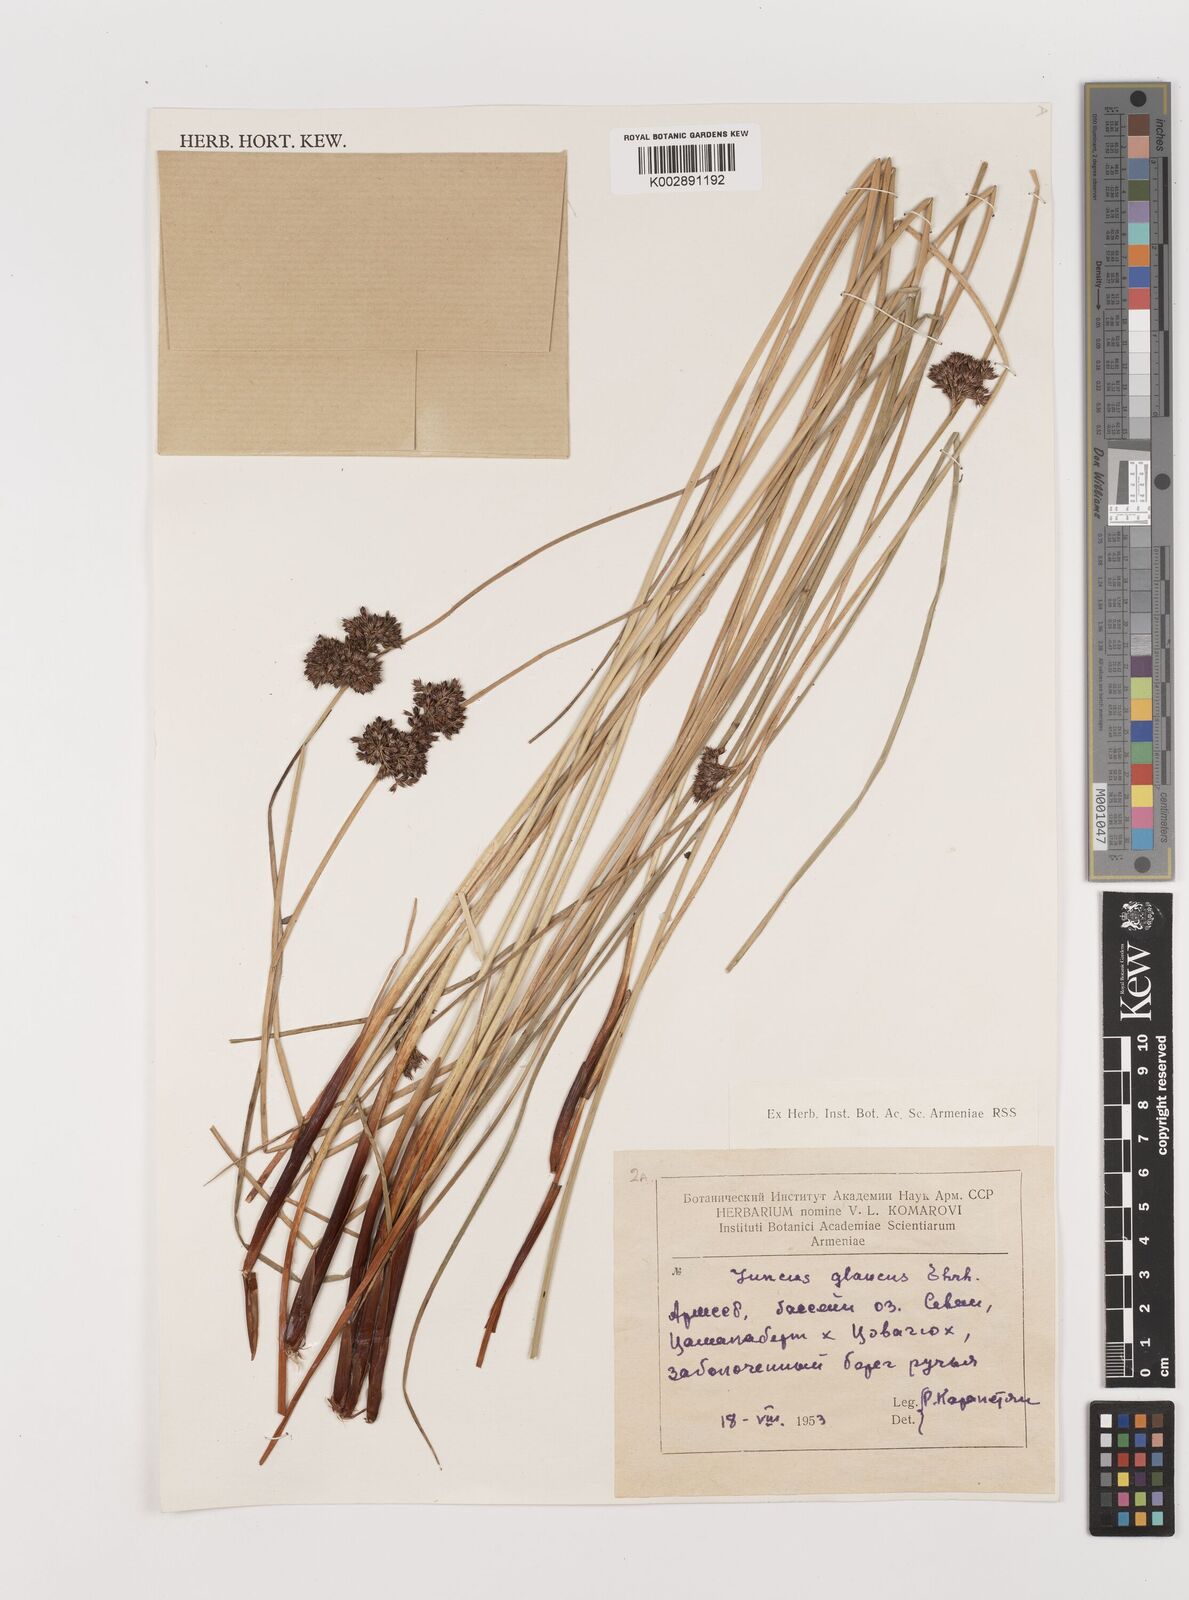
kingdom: Plantae
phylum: Tracheophyta
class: Liliopsida
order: Poales
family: Juncaceae
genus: Juncus
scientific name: Juncus inflexus
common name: Hard rush
